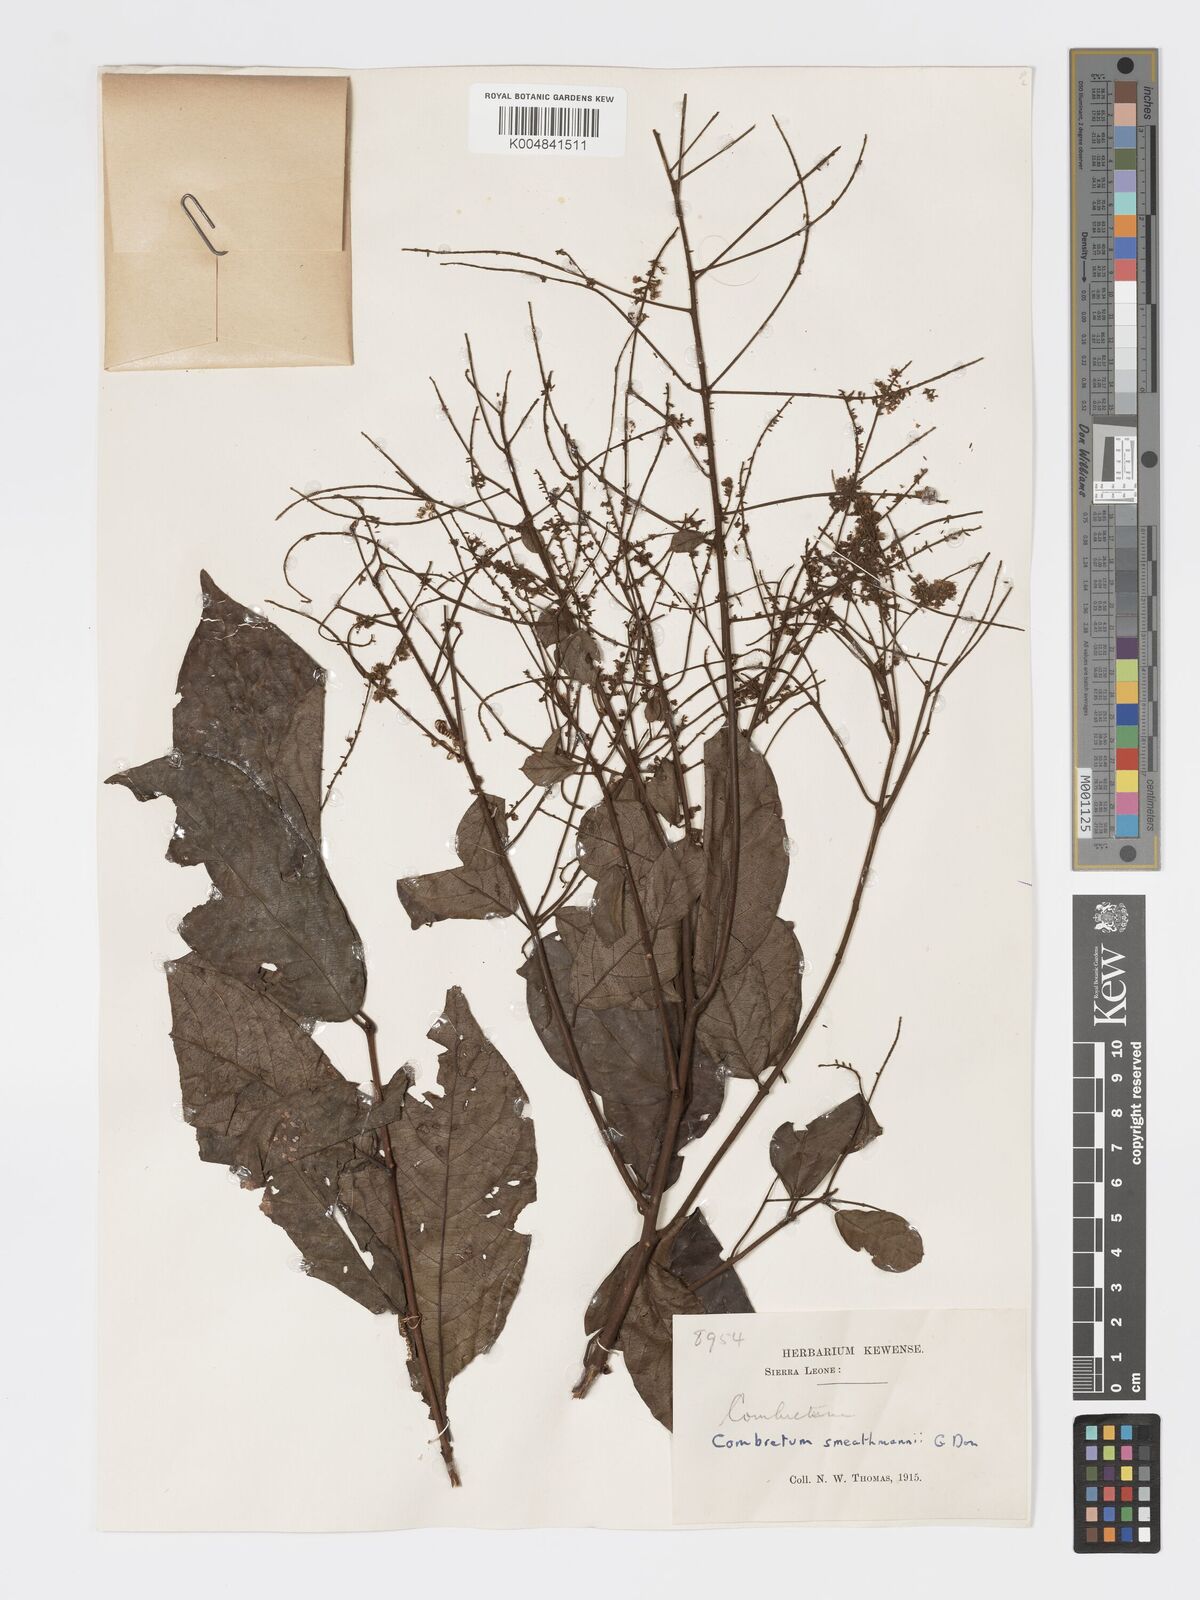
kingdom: Plantae
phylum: Tracheophyta
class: Magnoliopsida
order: Myrtales
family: Combretaceae
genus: Combretum
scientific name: Combretum mucronatum
